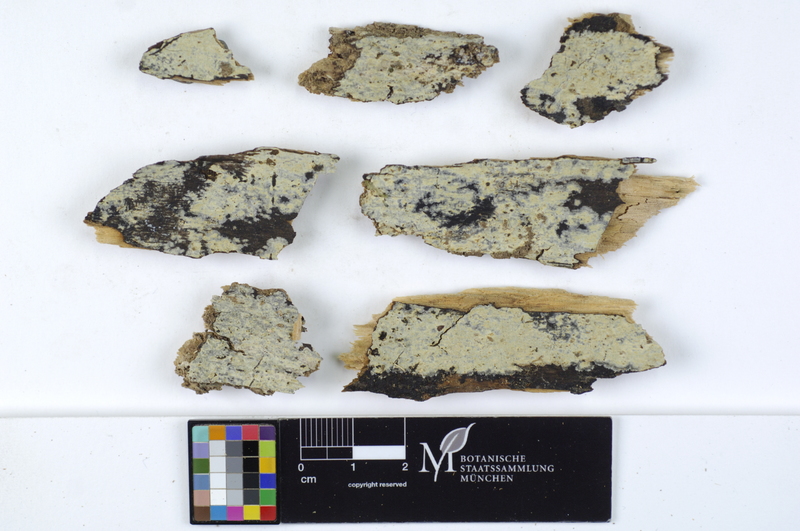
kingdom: Fungi
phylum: Basidiomycota
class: Agaricomycetes
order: Russulales
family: Peniophoraceae
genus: Gloiothele
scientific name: Gloiothele lactescens
